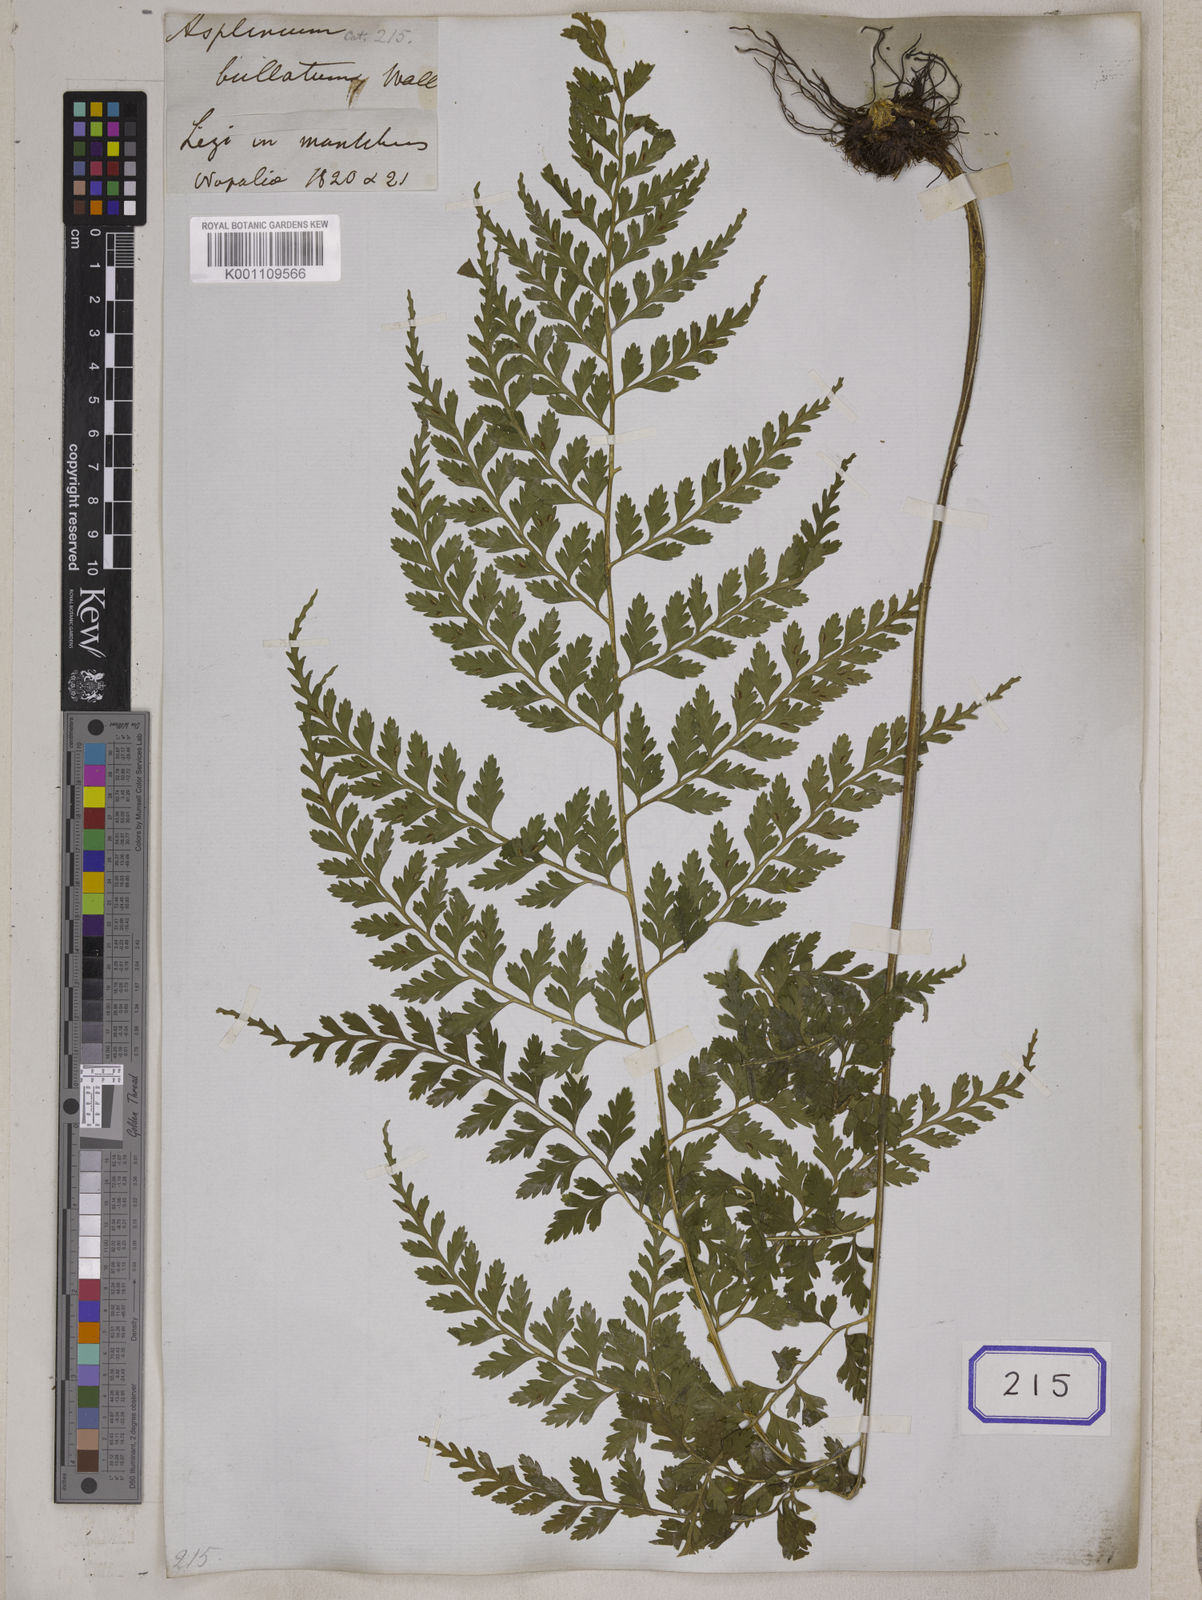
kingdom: Plantae
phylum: Tracheophyta
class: Polypodiopsida
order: Polypodiales
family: Aspleniaceae
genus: Asplenium
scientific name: Asplenium bullatum
